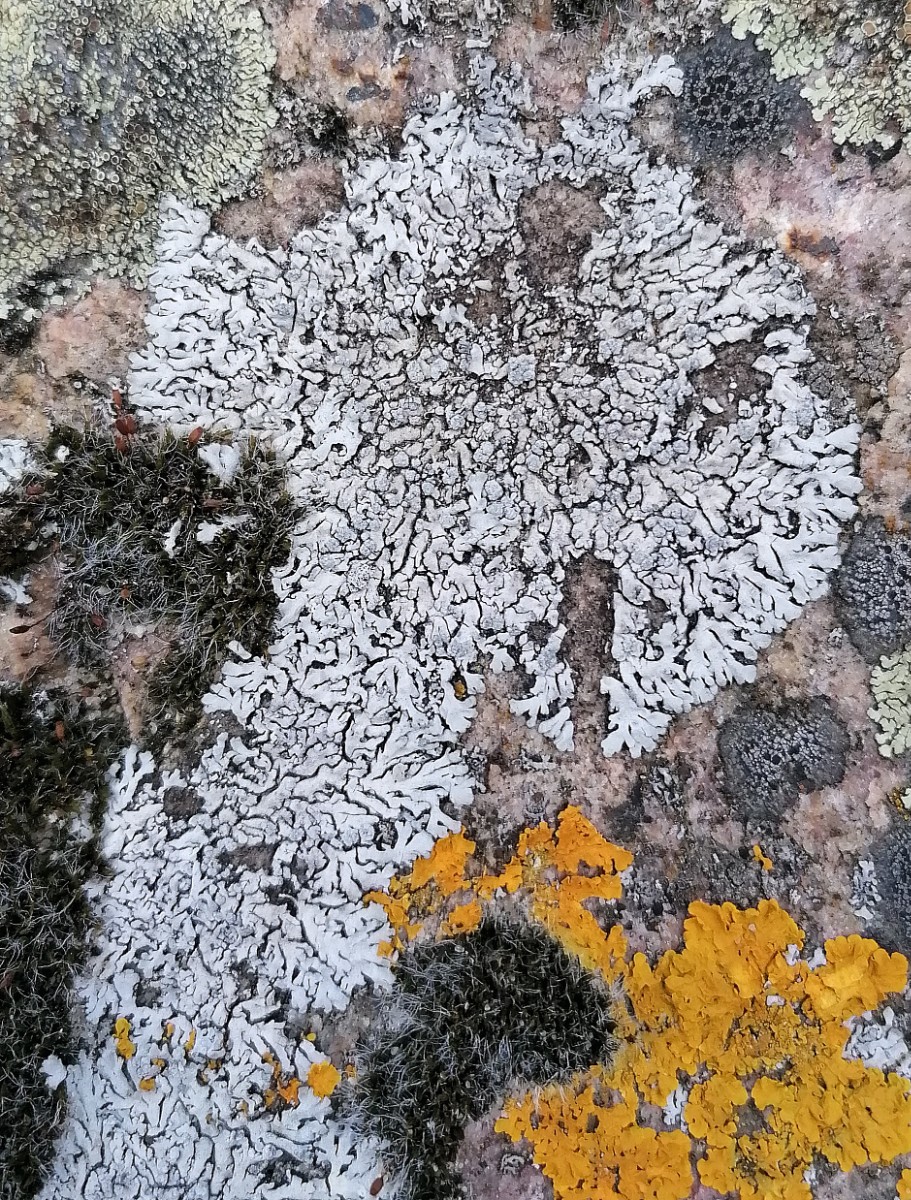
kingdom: Fungi
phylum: Ascomycota
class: Lecanoromycetes
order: Caliciales
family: Physciaceae
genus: Physcia
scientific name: Physcia caesia
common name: blågrå rosetlav
